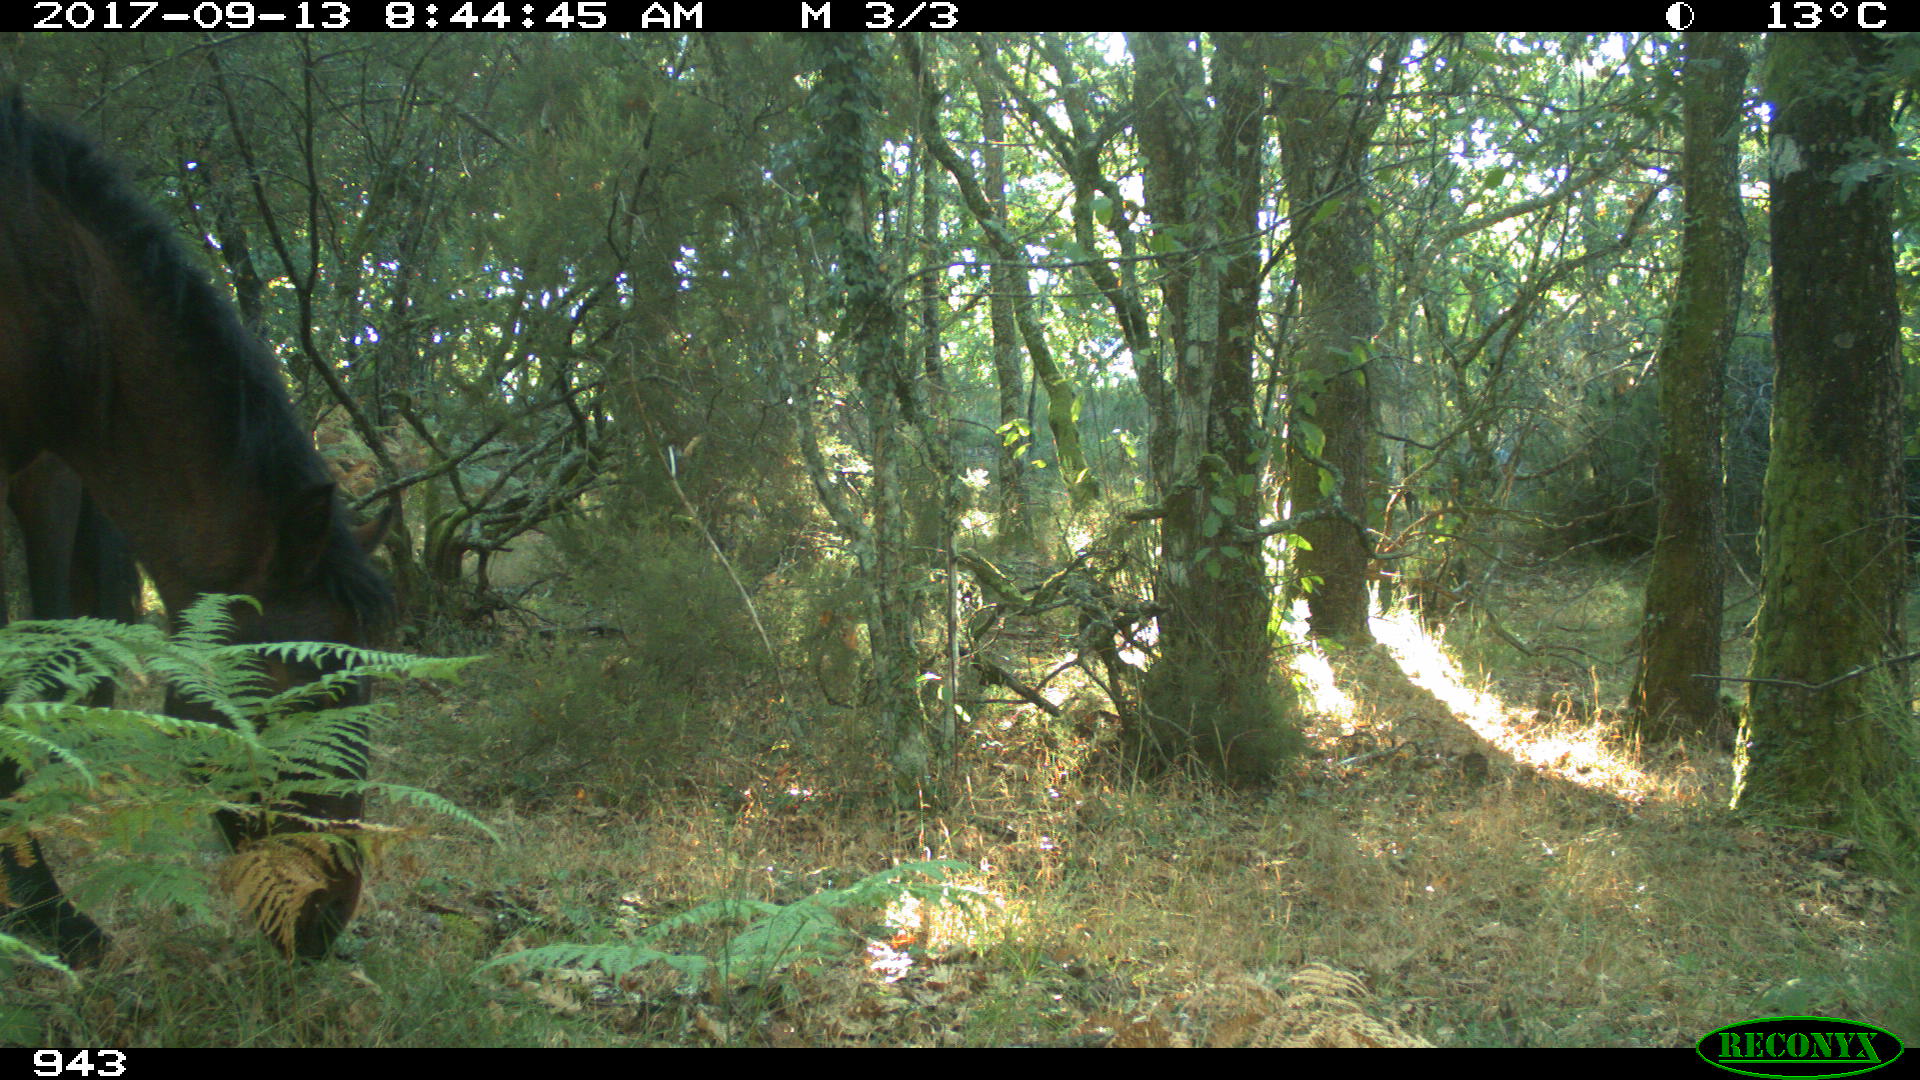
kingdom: Animalia
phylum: Chordata
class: Mammalia
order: Perissodactyla
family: Equidae
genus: Equus
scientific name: Equus caballus
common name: Horse
